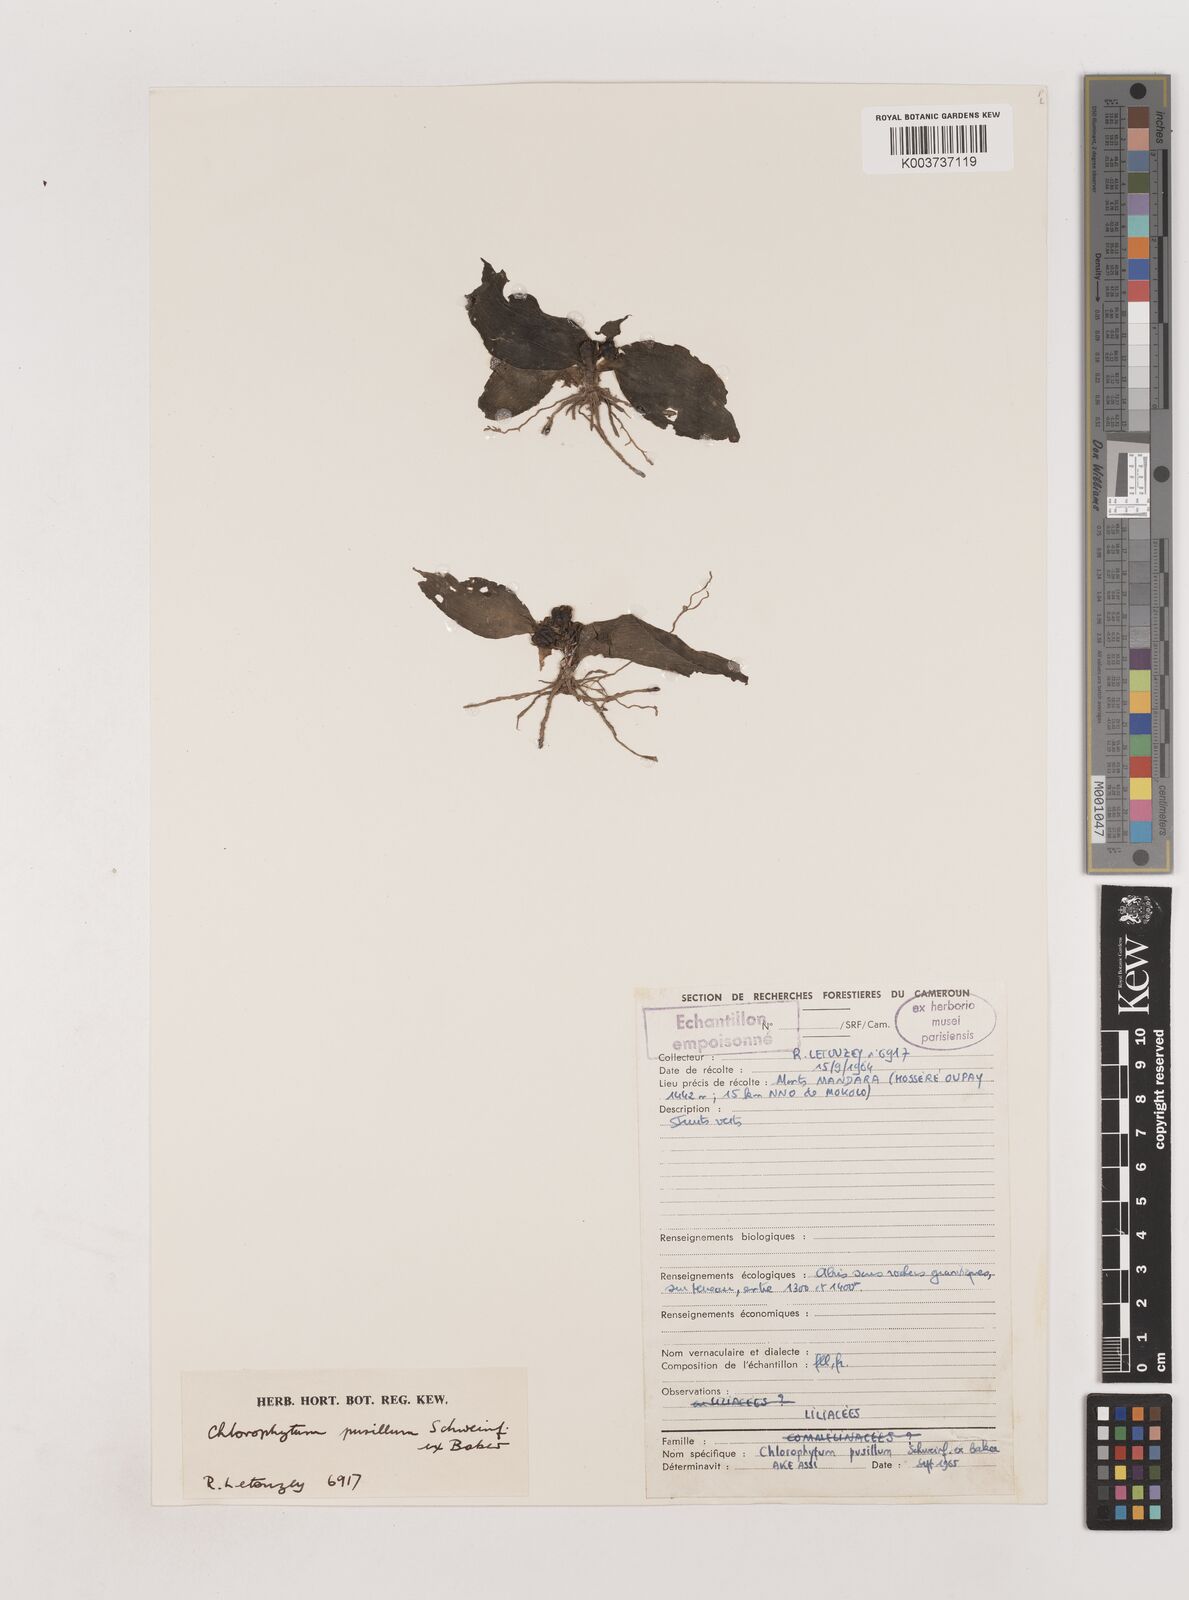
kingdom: Plantae
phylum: Tracheophyta
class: Liliopsida
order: Asparagales
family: Asparagaceae
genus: Chlorophytum
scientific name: Chlorophytum pusillum
